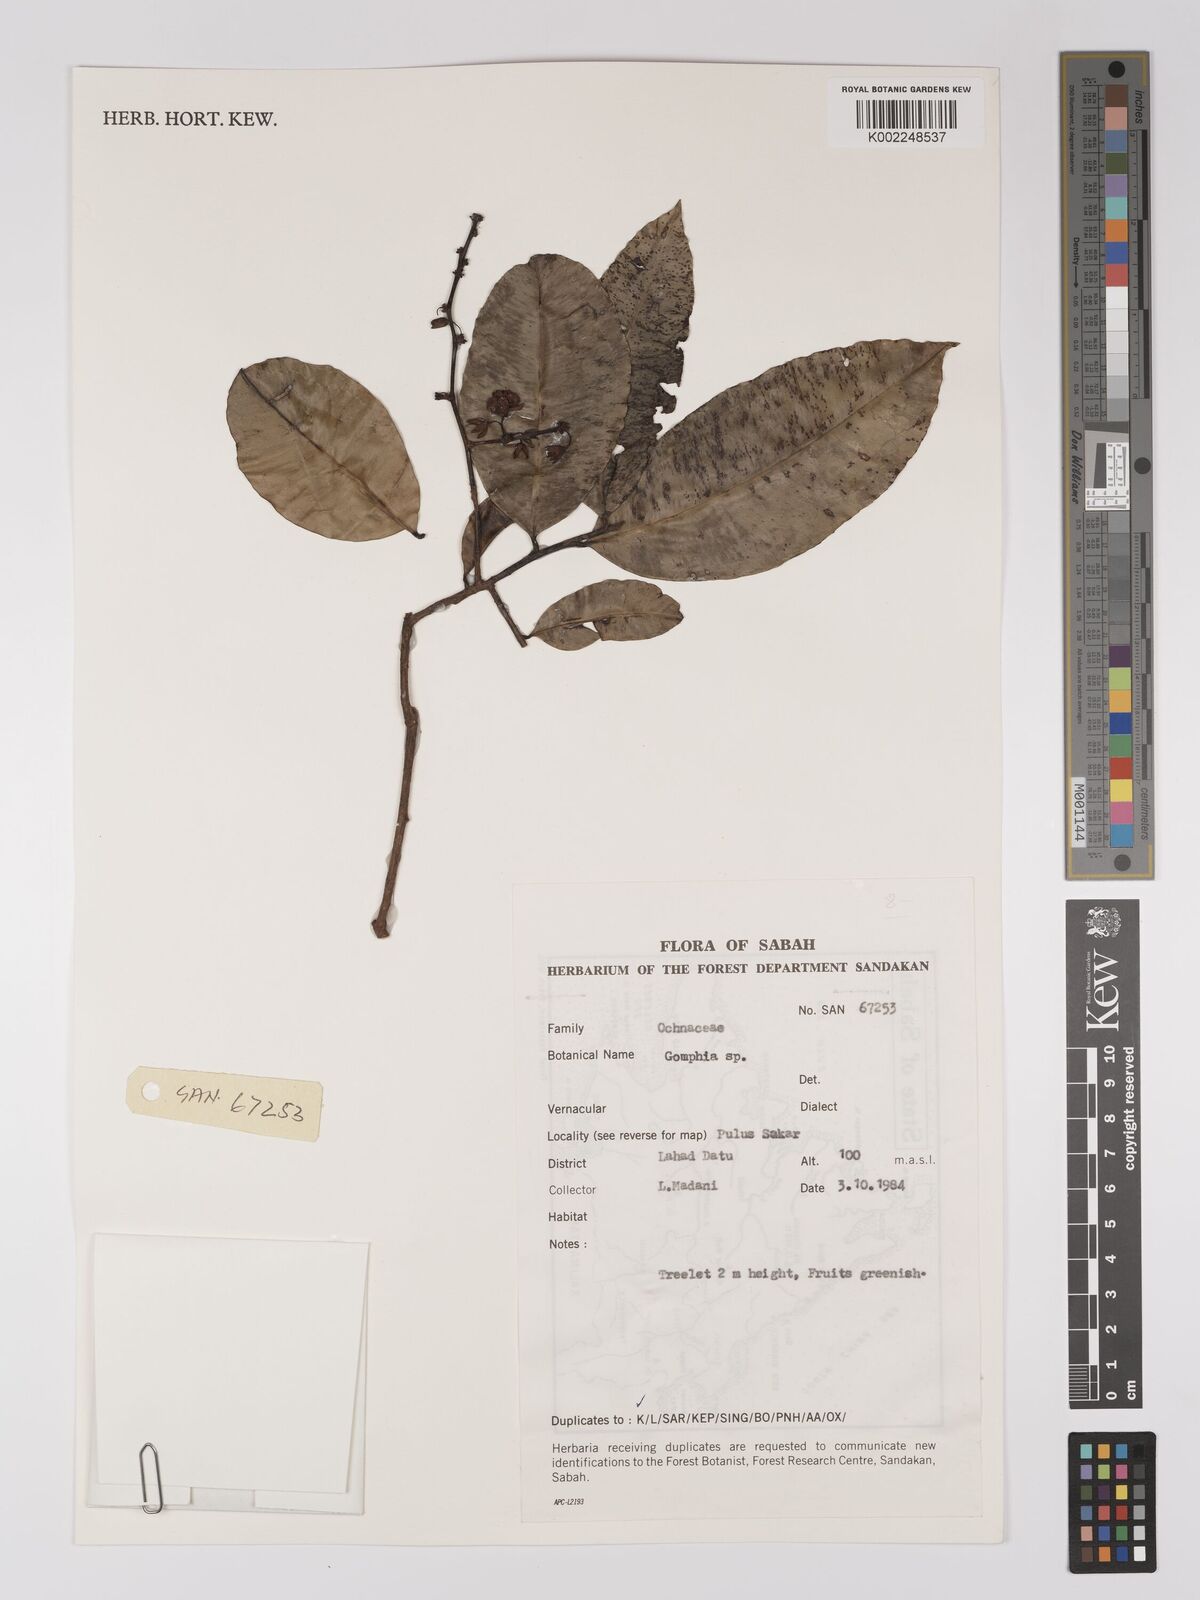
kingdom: Plantae
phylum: Tracheophyta
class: Magnoliopsida
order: Malpighiales
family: Ochnaceae
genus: Gomphia
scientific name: Gomphia serrata
